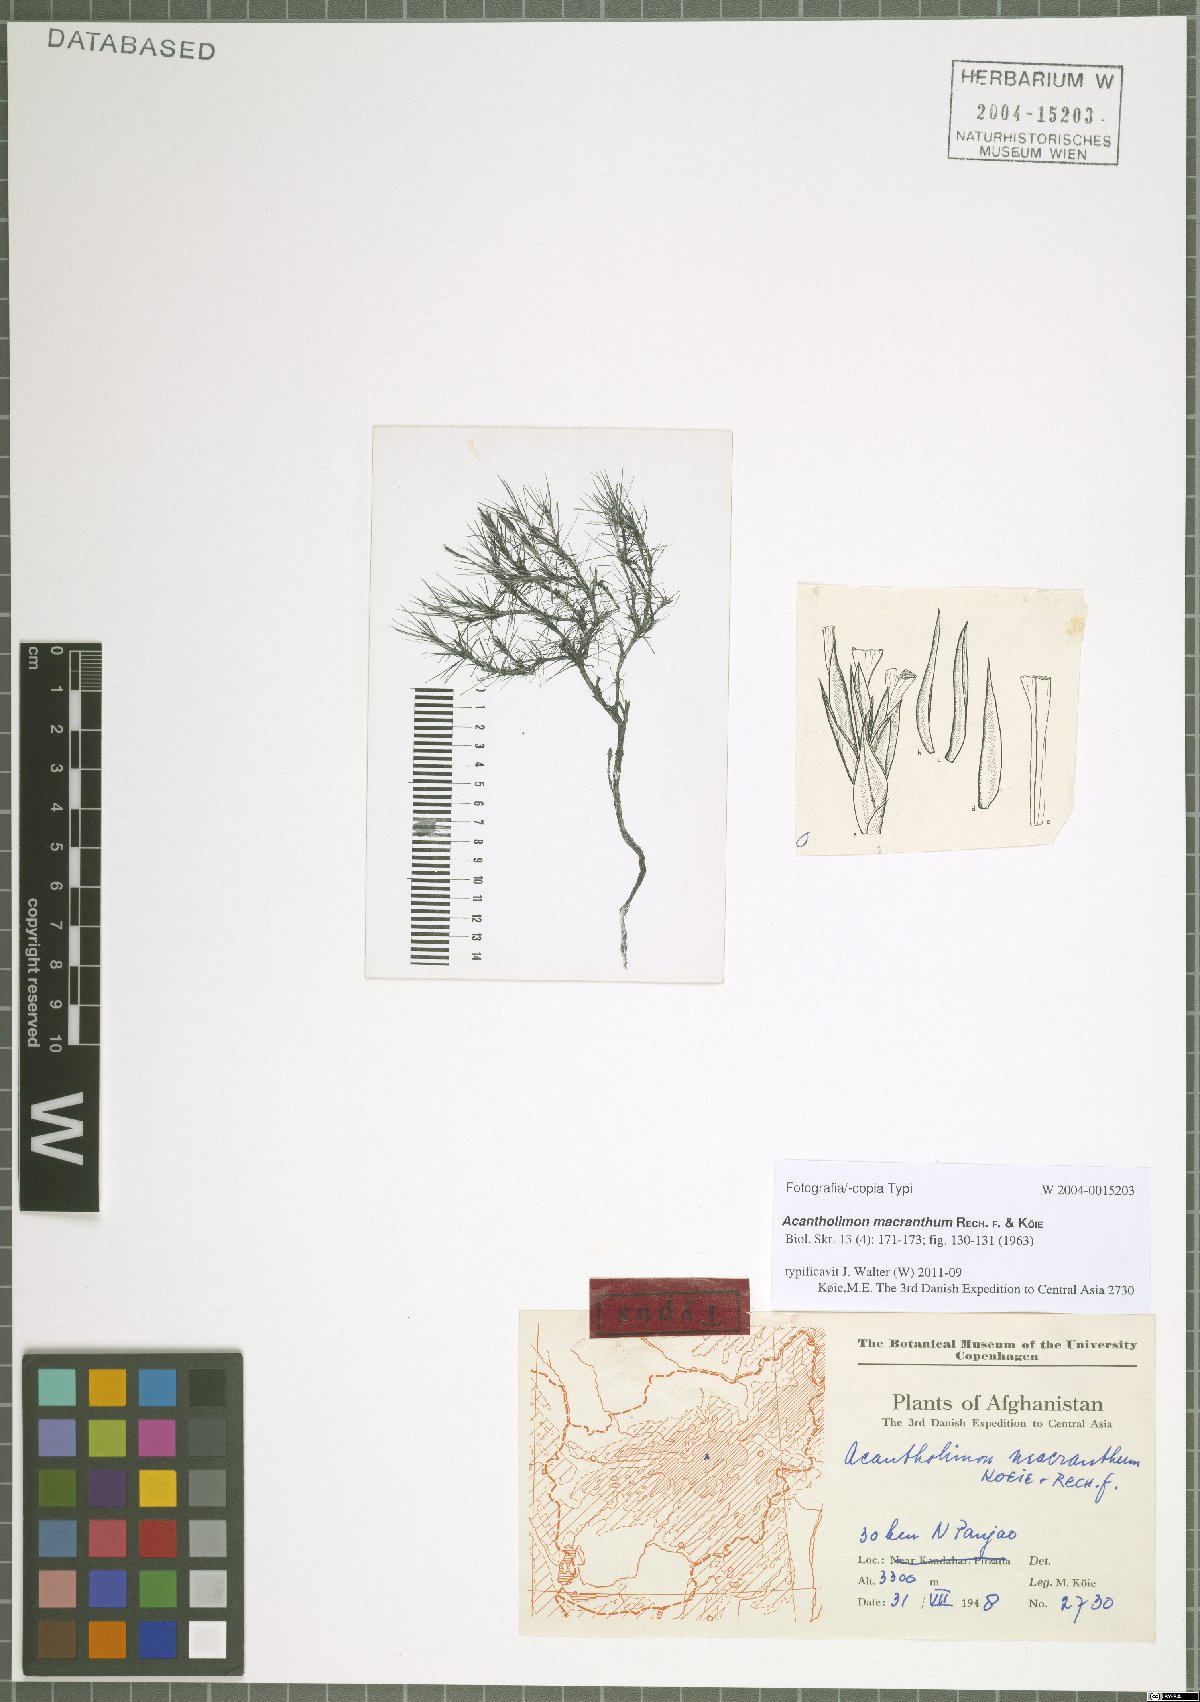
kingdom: Plantae
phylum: Tracheophyta
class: Magnoliopsida
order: Caryophyllales
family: Plumbaginaceae
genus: Acantholimon
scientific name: Acantholimon macranthum
